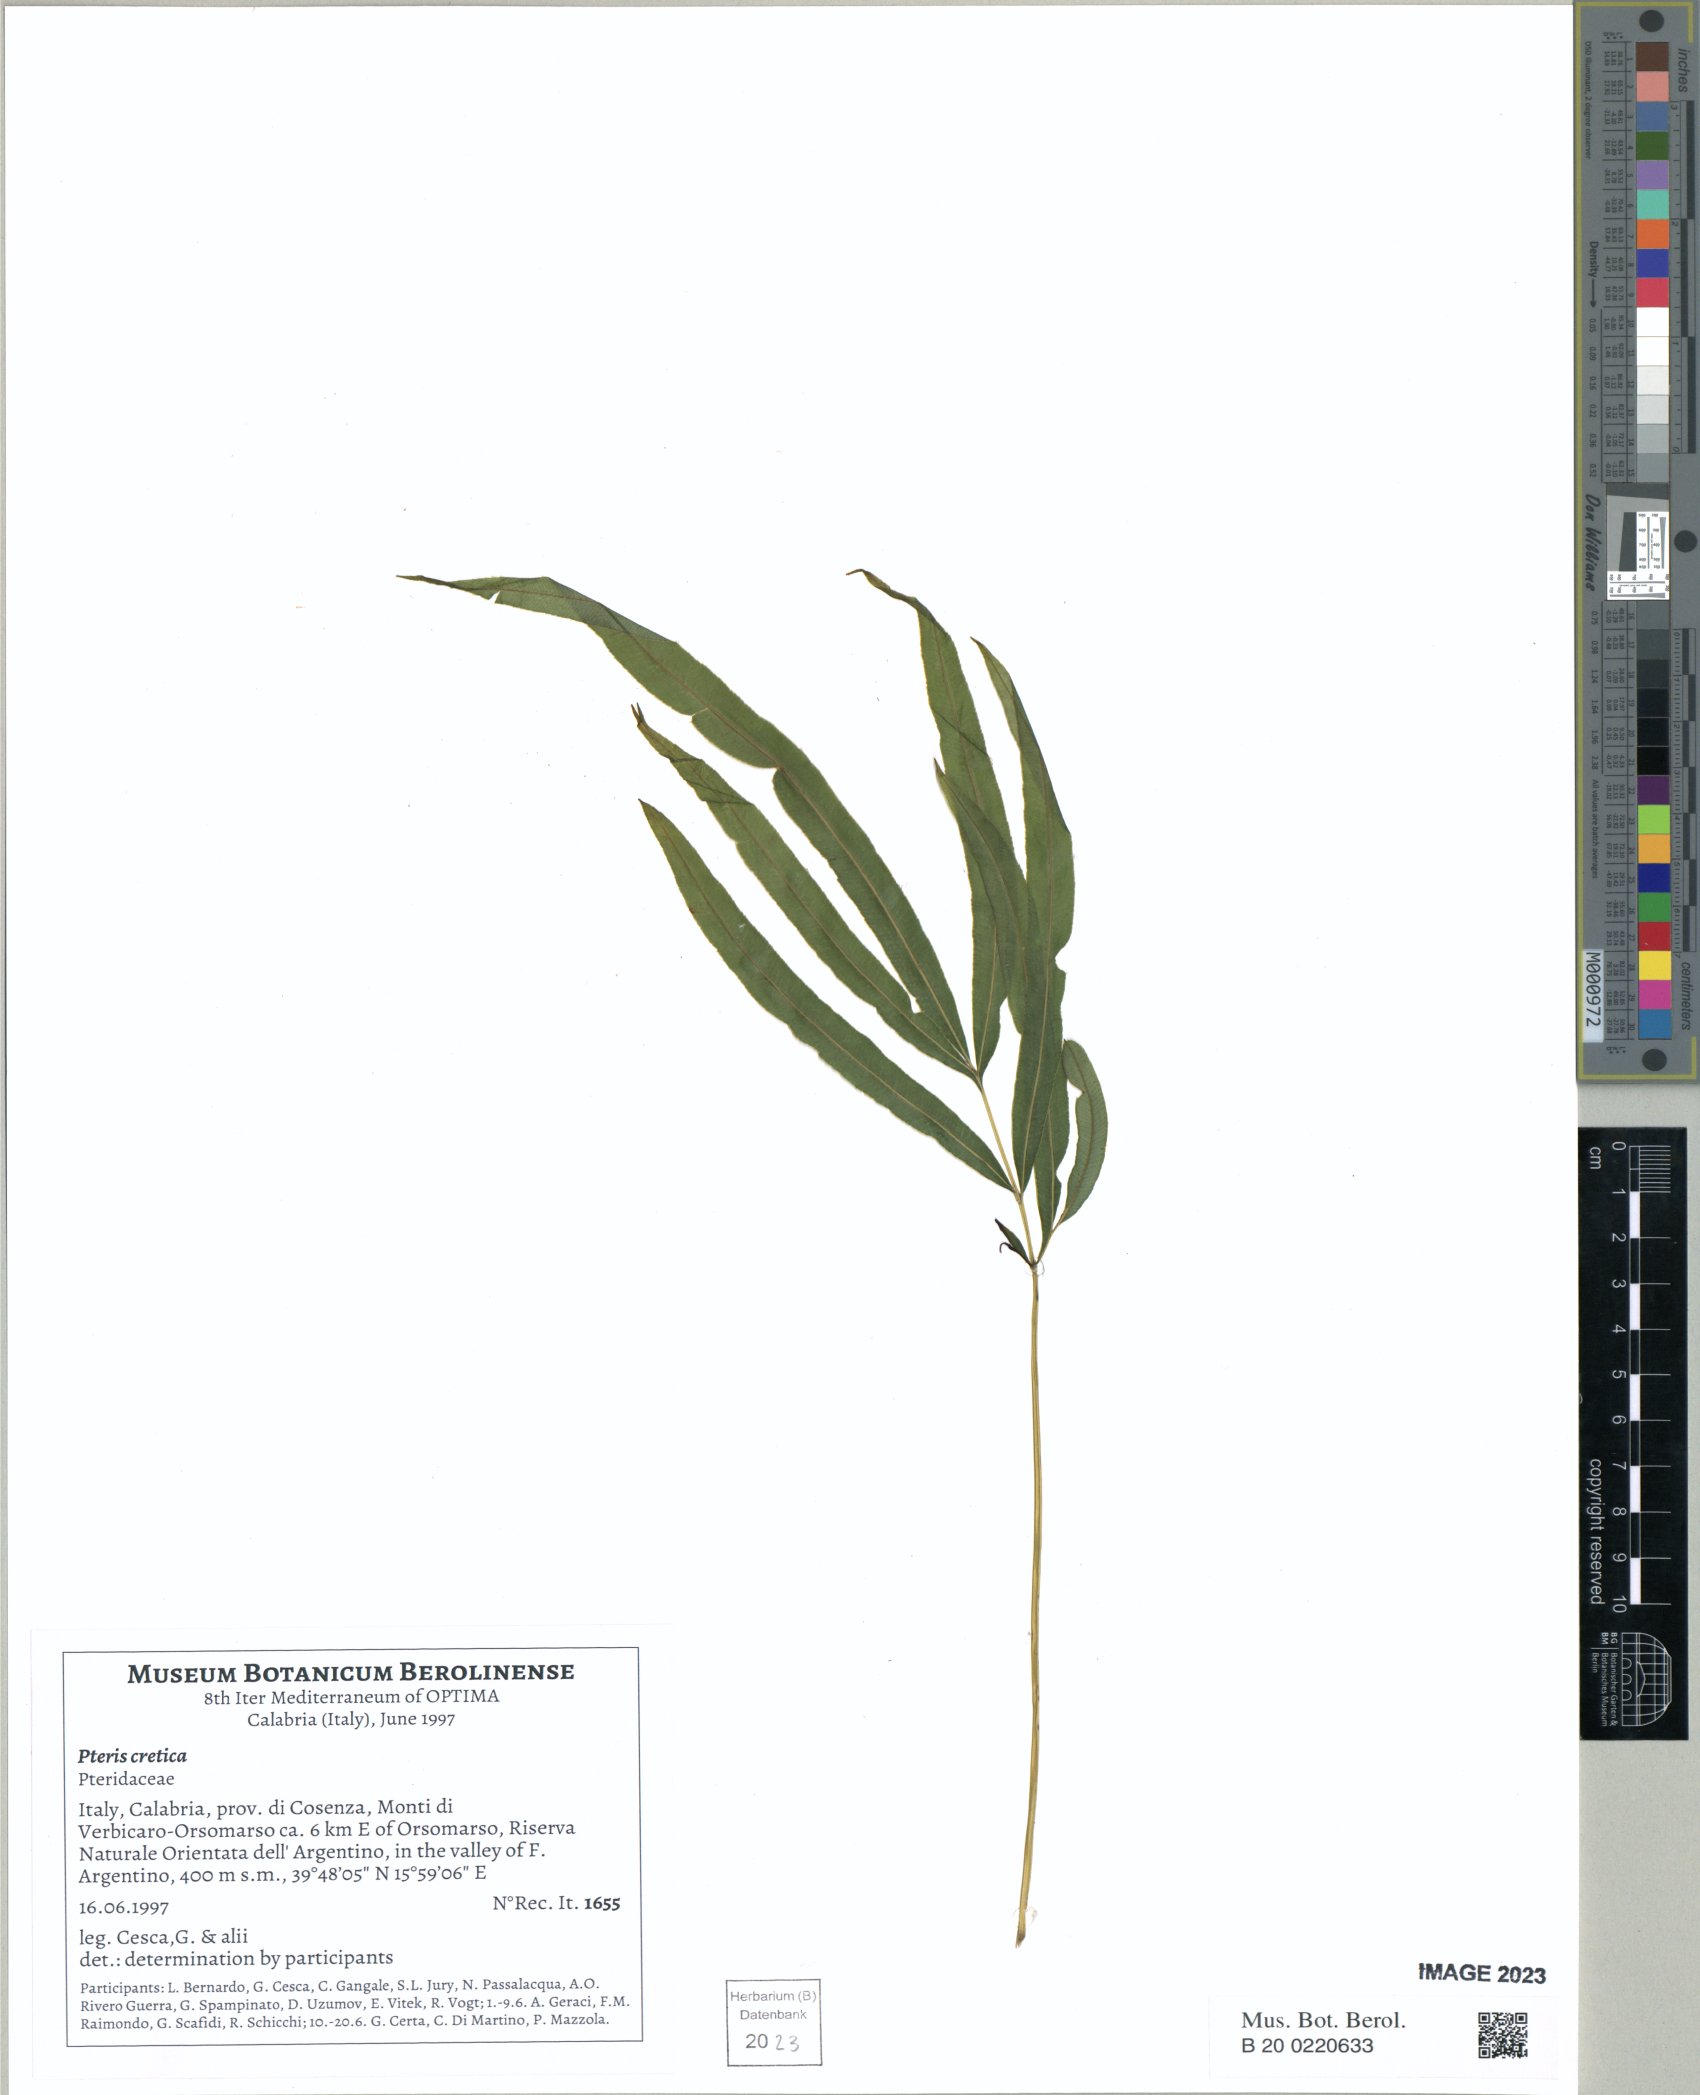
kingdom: Plantae
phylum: Tracheophyta
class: Polypodiopsida
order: Polypodiales
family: Pteridaceae
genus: Pteris
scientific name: Pteris cretica
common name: Ribbon fern
